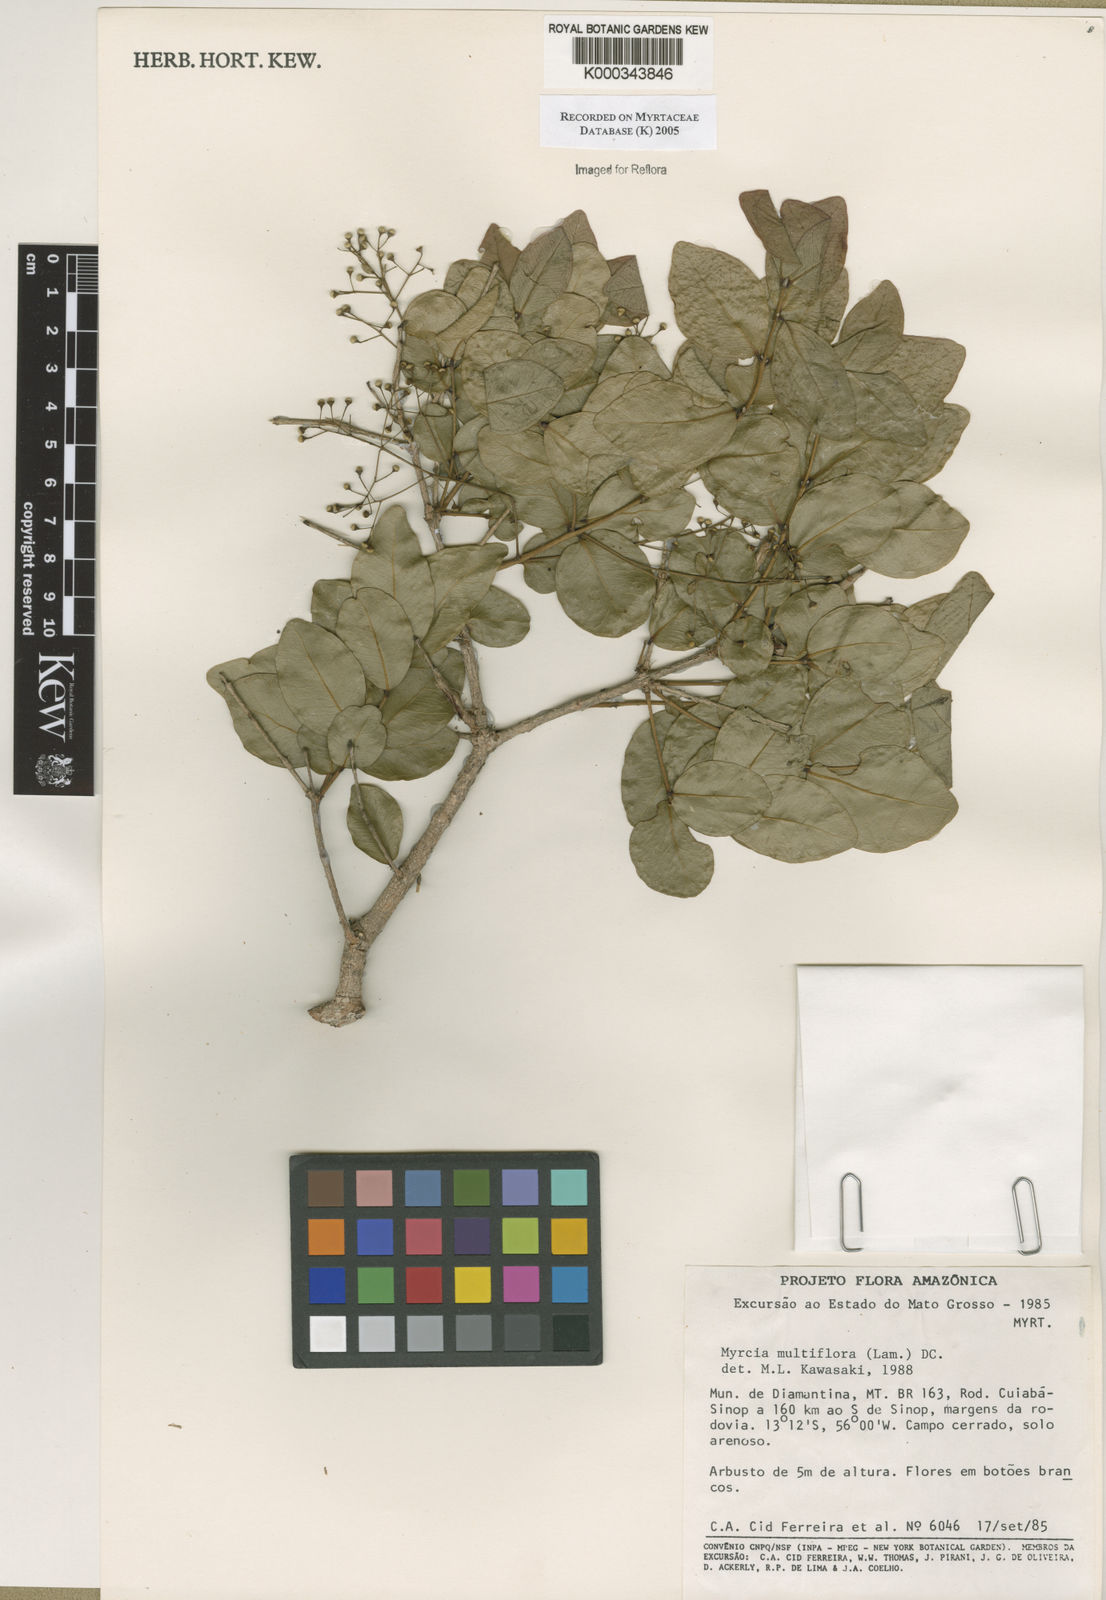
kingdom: Plantae
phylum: Tracheophyta
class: Magnoliopsida
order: Myrtales
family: Myrtaceae
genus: Myrcia
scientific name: Myrcia multiflora
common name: Pedra hume
